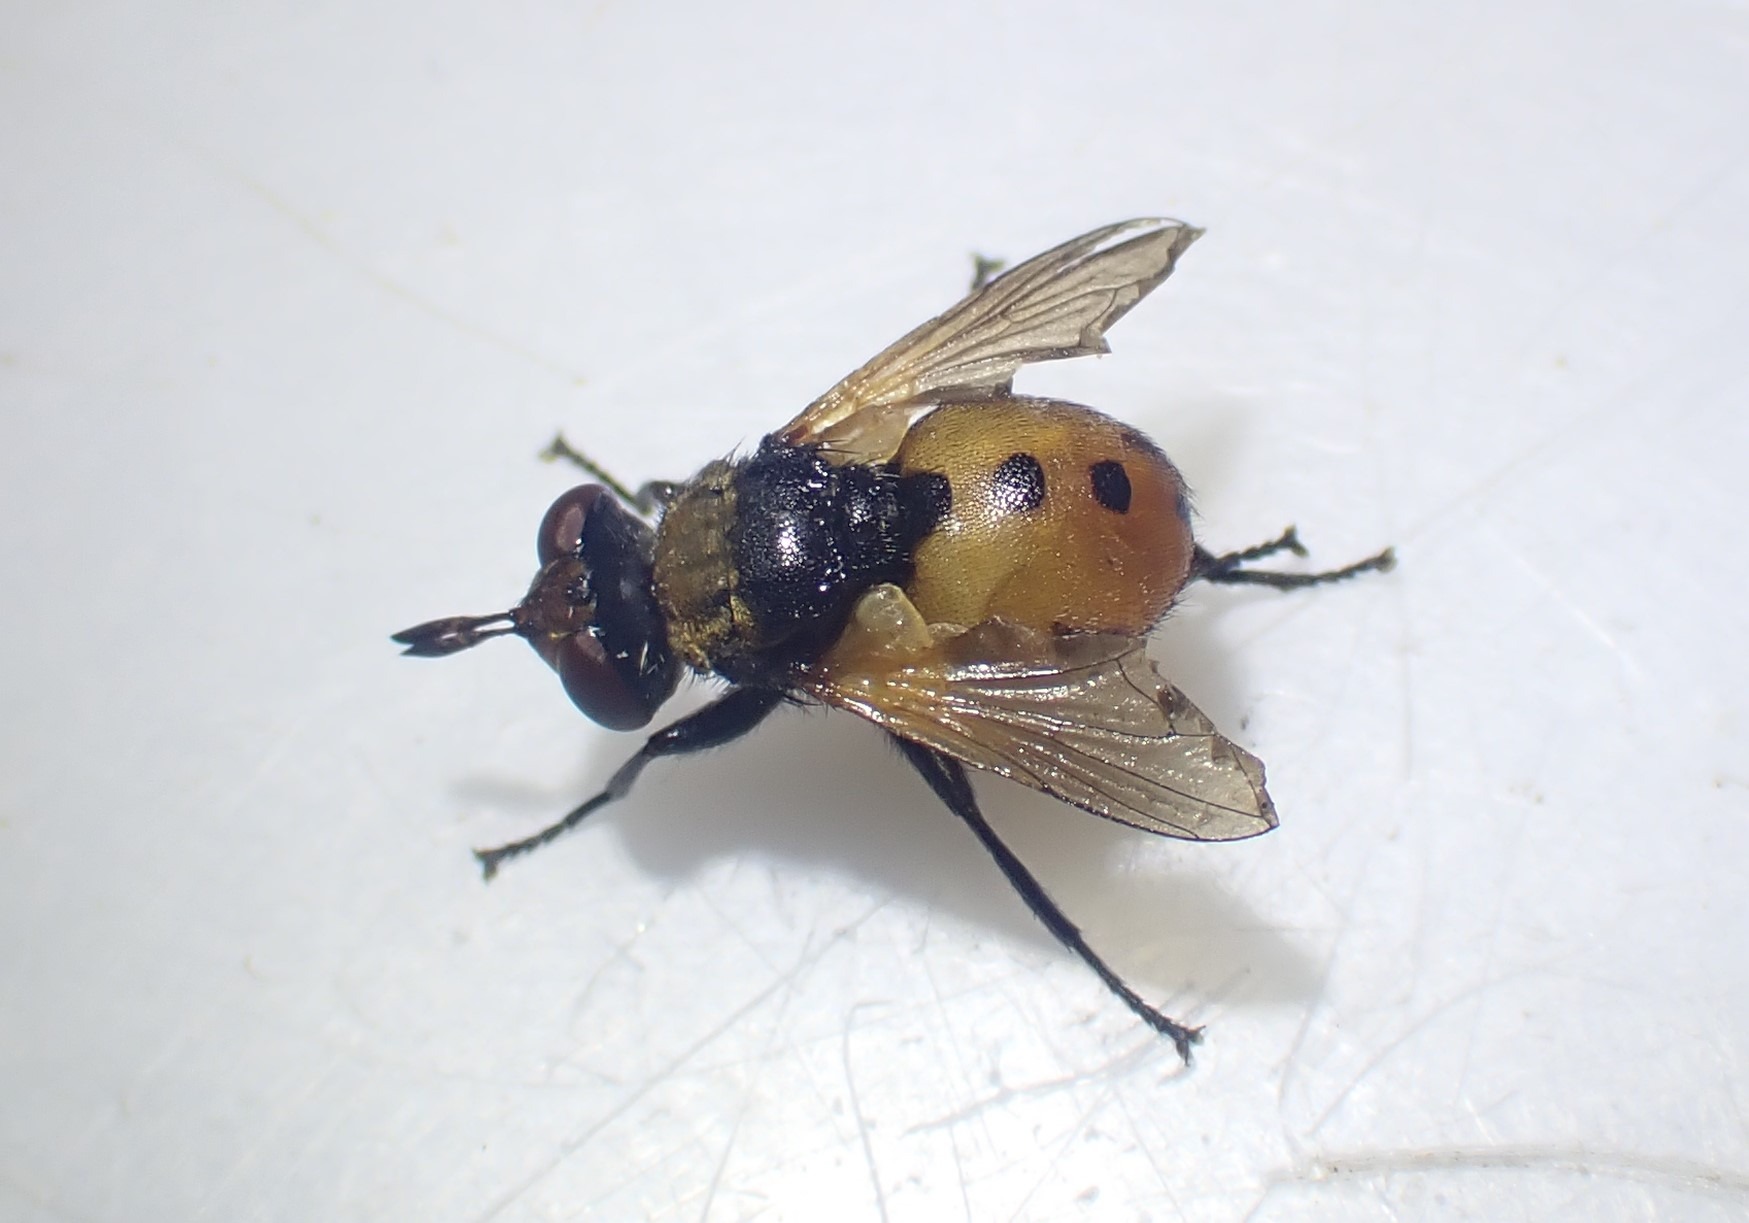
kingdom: Animalia
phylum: Arthropoda
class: Insecta
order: Diptera
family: Tachinidae
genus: Gymnosoma
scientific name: Gymnosoma
